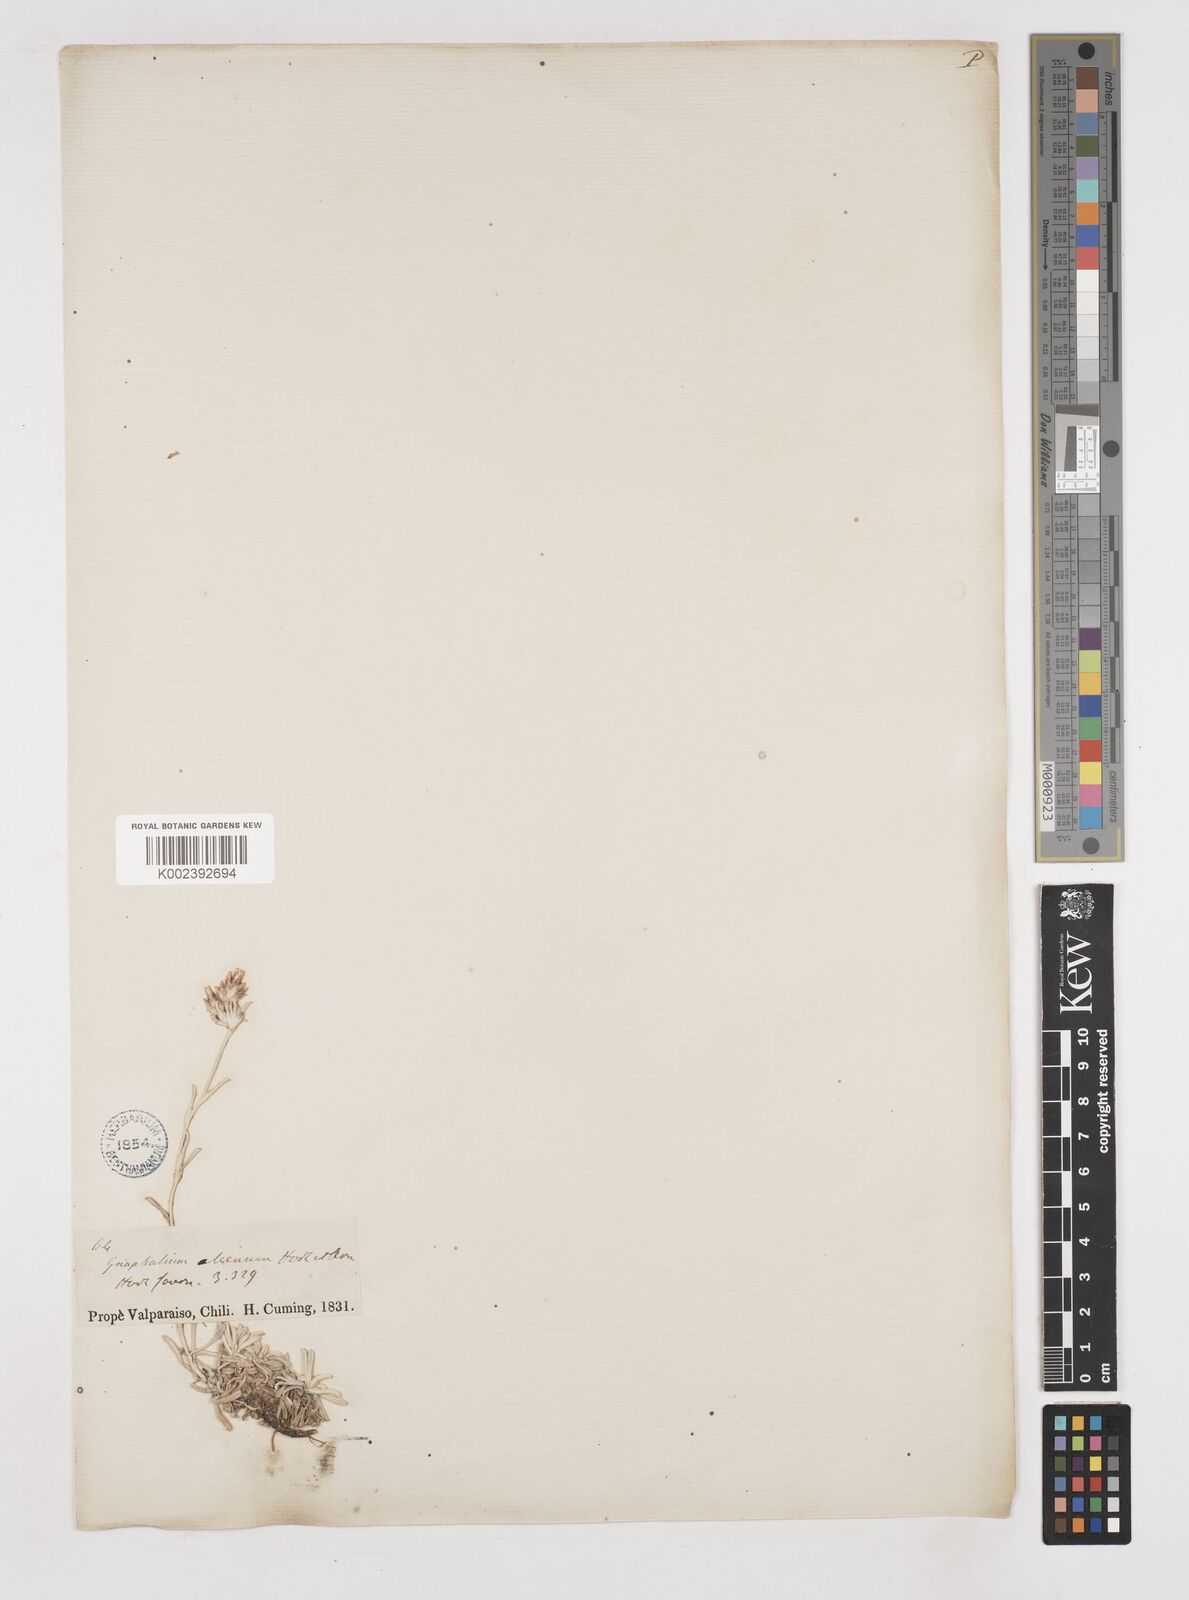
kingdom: Plantae
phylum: Tracheophyta
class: Magnoliopsida
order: Asterales
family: Asteraceae
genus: Gamochaeta
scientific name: Gamochaeta aliena
